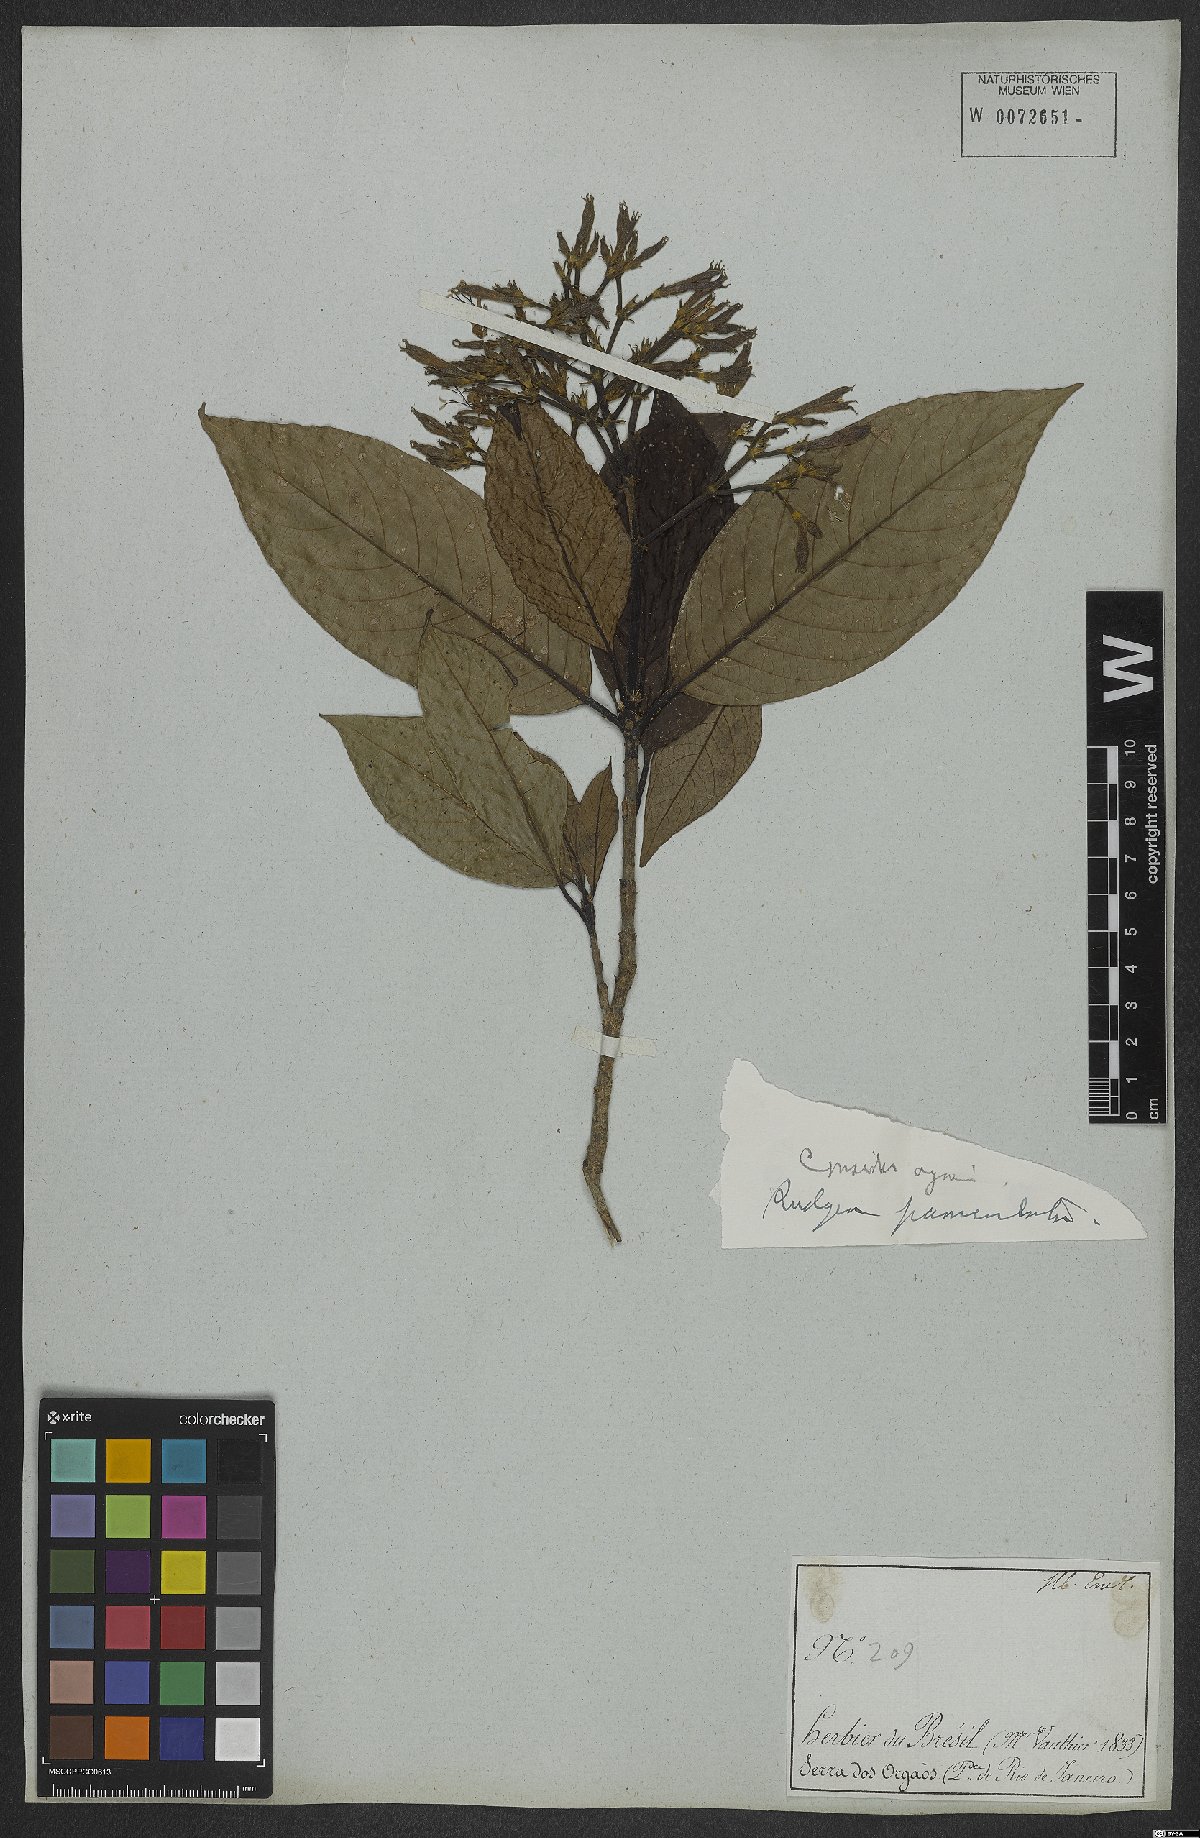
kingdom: Plantae
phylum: Tracheophyta
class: Magnoliopsida
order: Gentianales
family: Rubiaceae
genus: Rudgea
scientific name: Rudgea jasminoides
